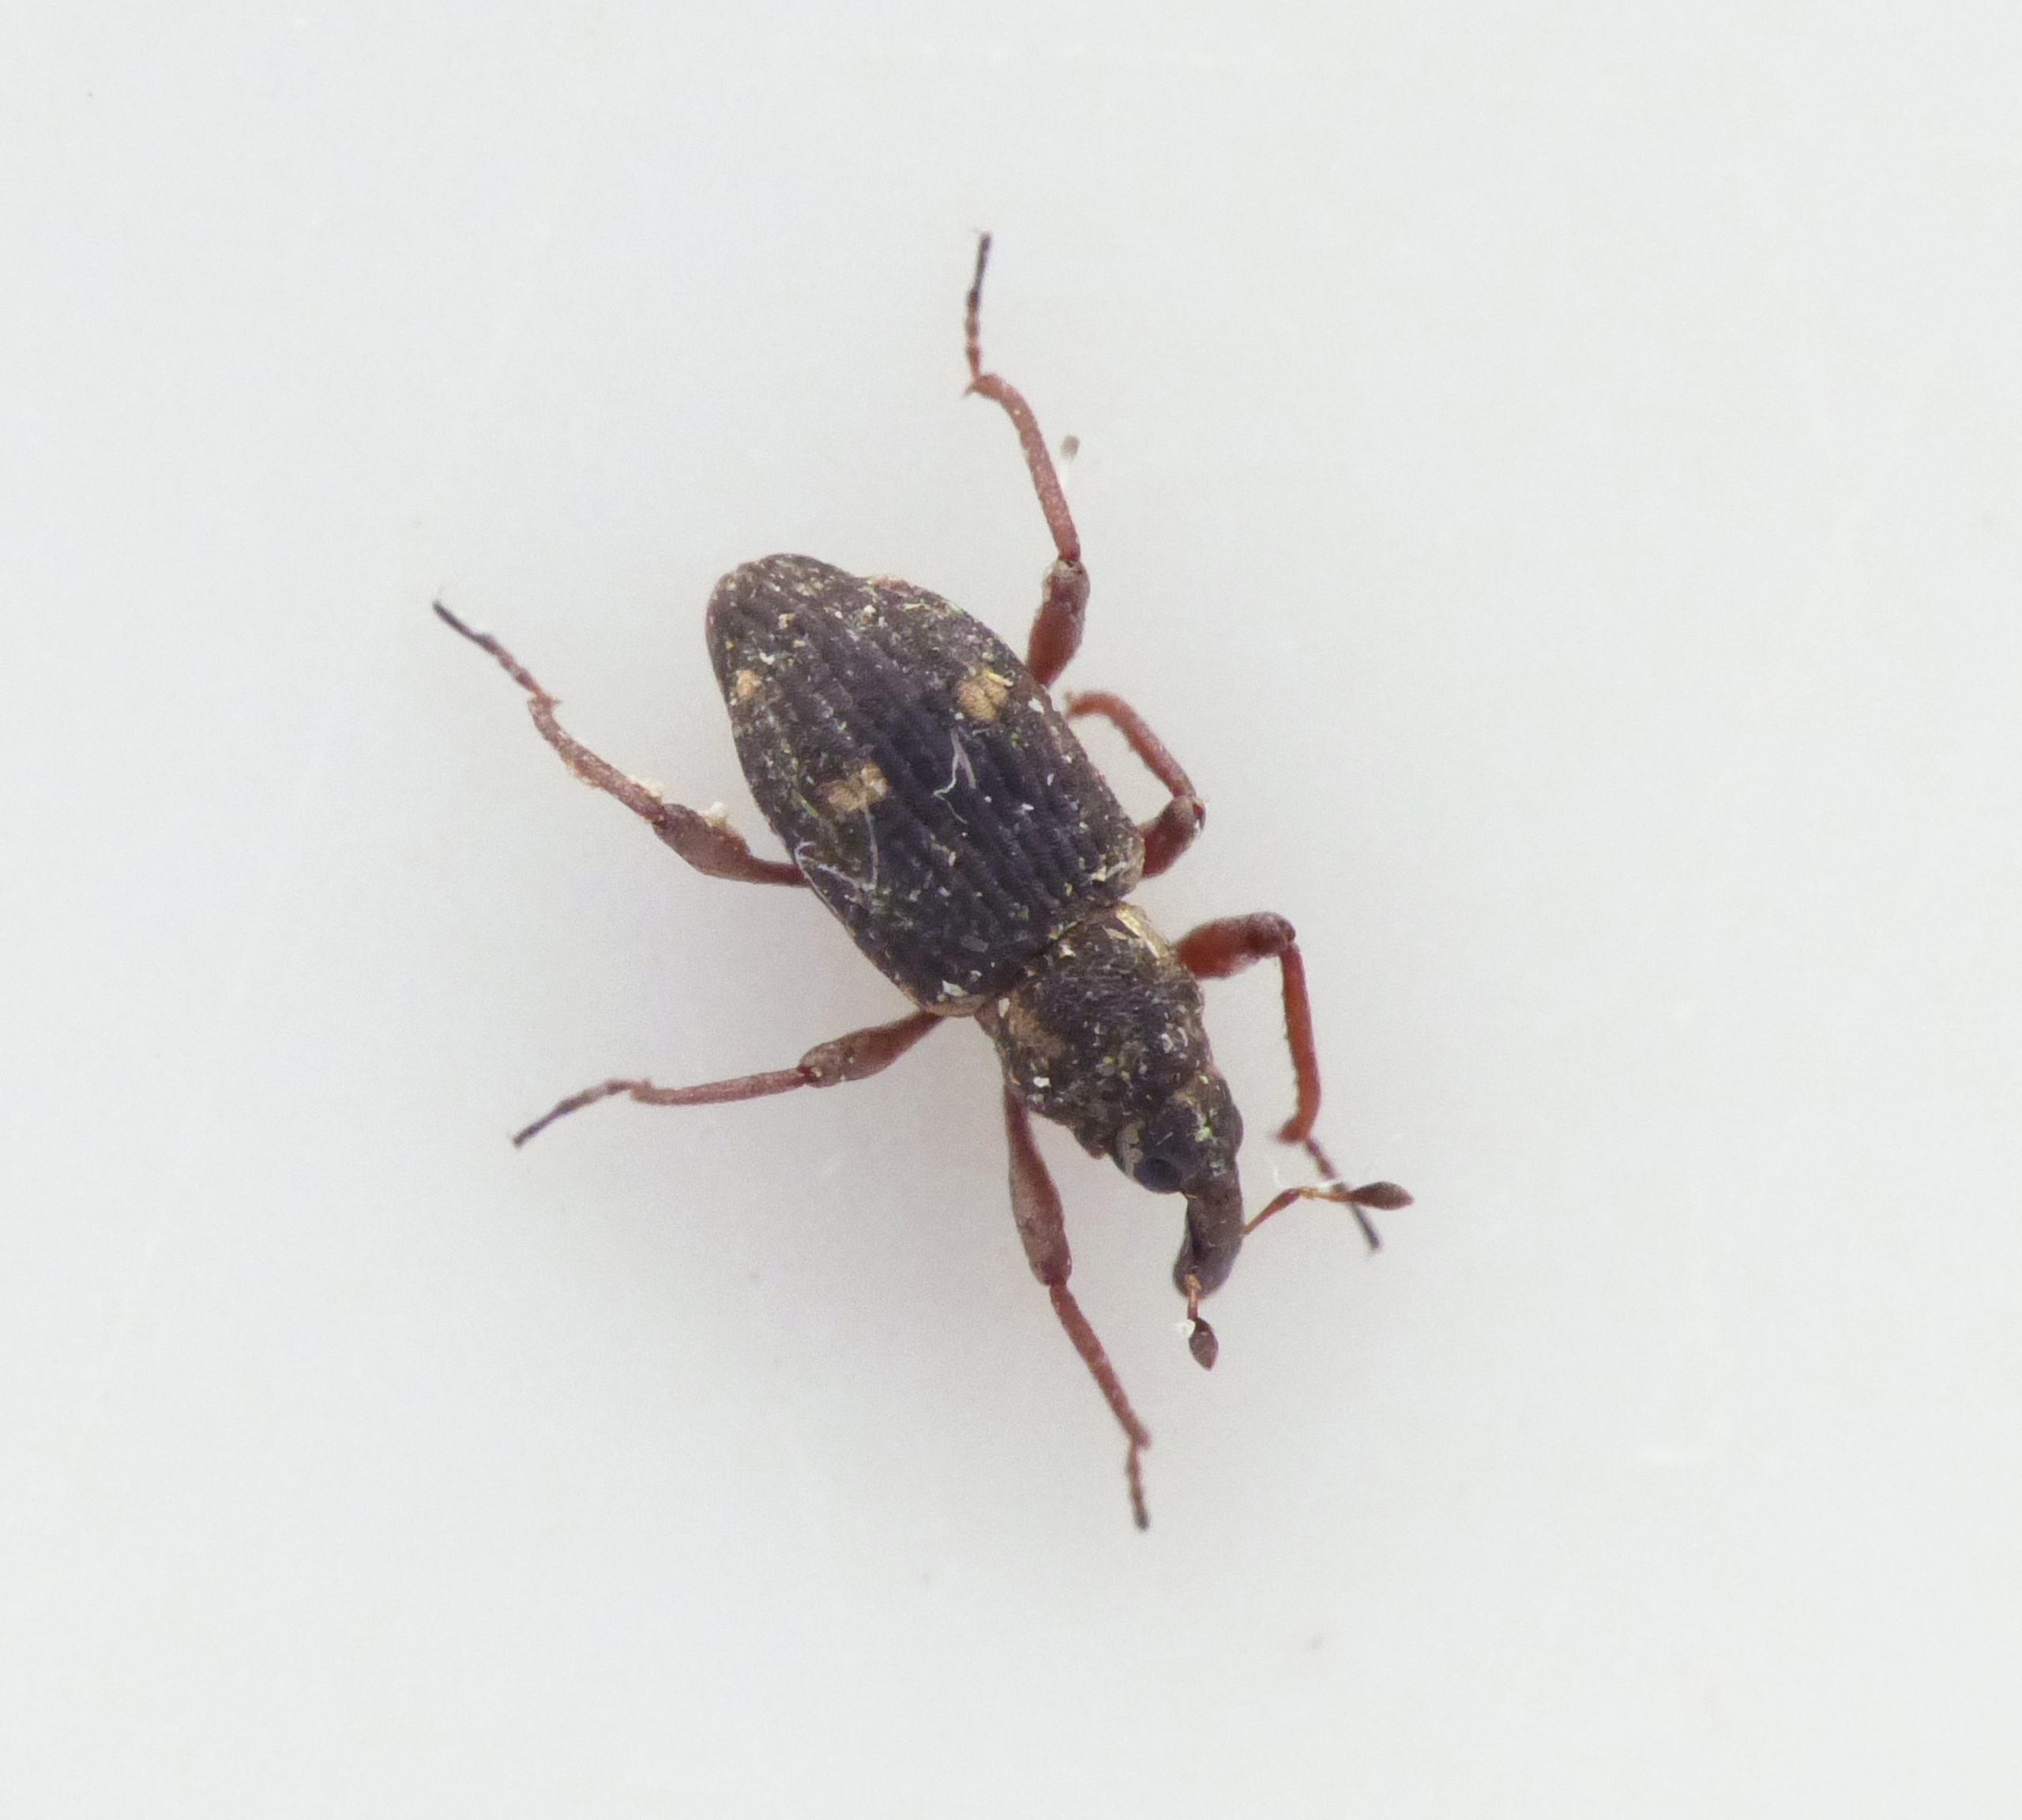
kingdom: Animalia
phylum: Arthropoda
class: Insecta
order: Coleoptera
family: Curculionidae
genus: Bagous
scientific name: Bagous longitarsis
